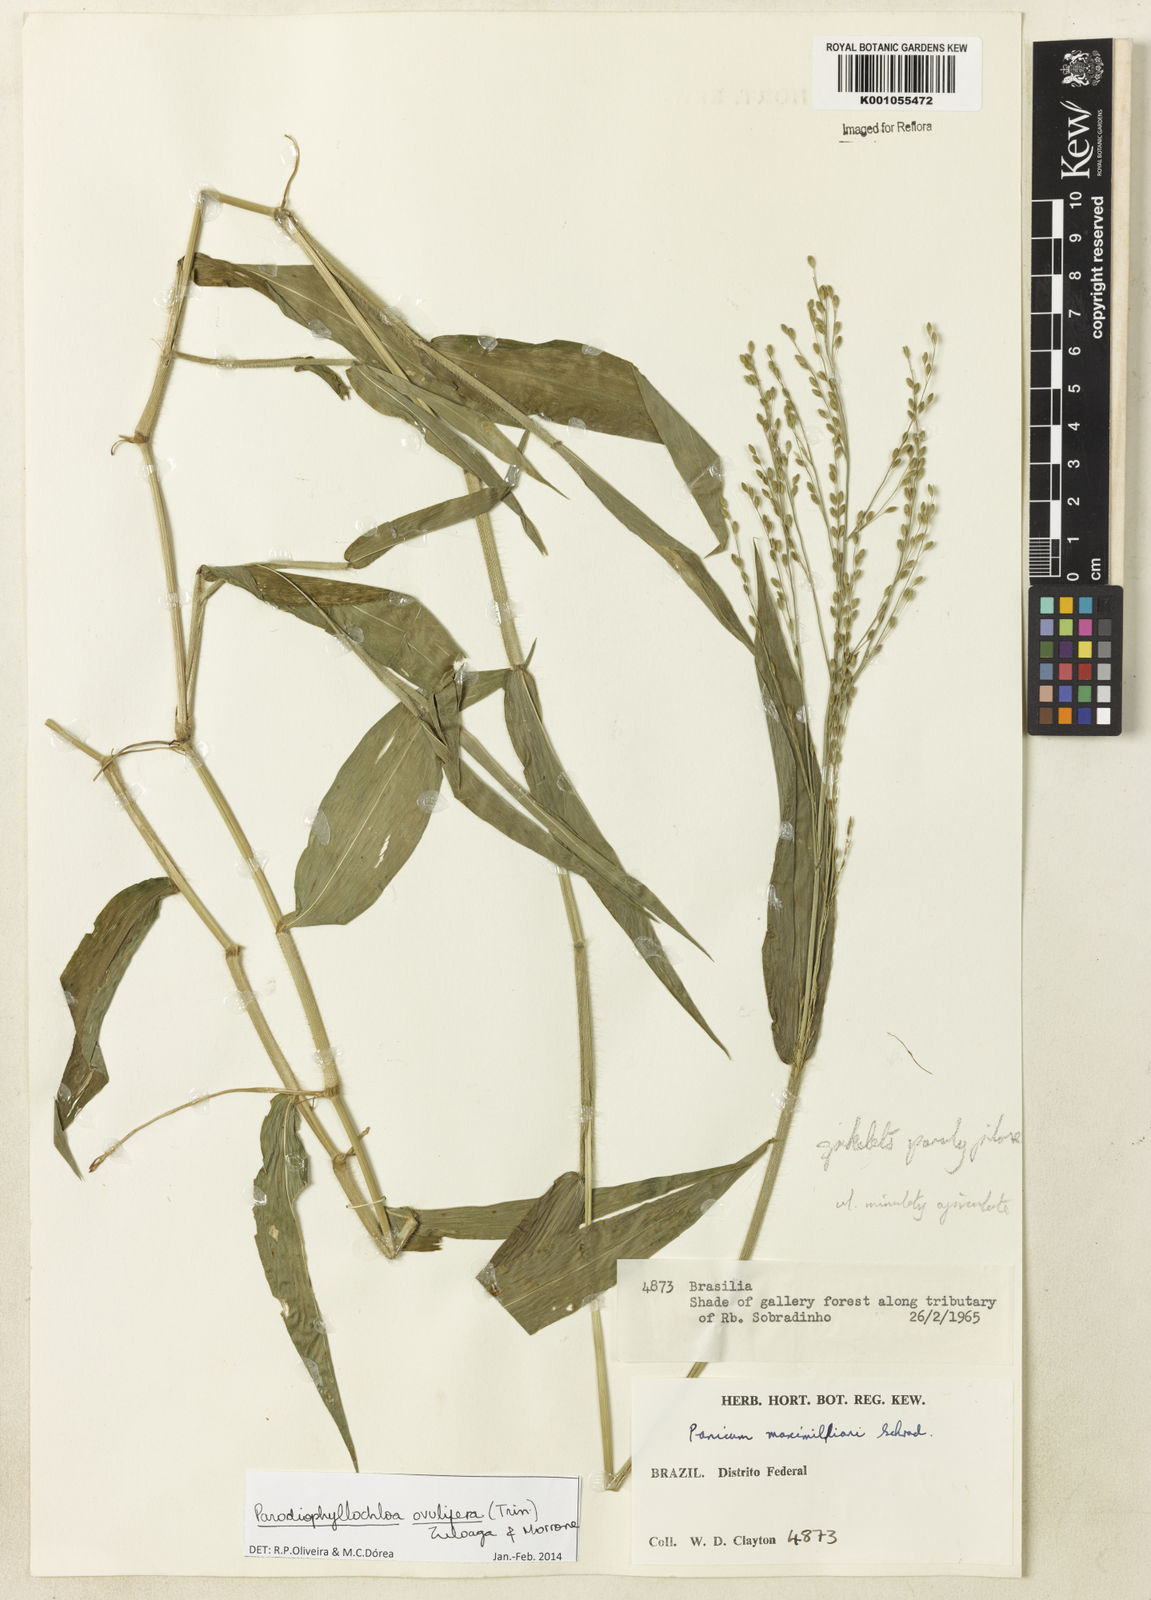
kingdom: Plantae
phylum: Tracheophyta
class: Liliopsida
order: Poales
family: Poaceae
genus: Parodiophyllochloa
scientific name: Parodiophyllochloa ovulifera
